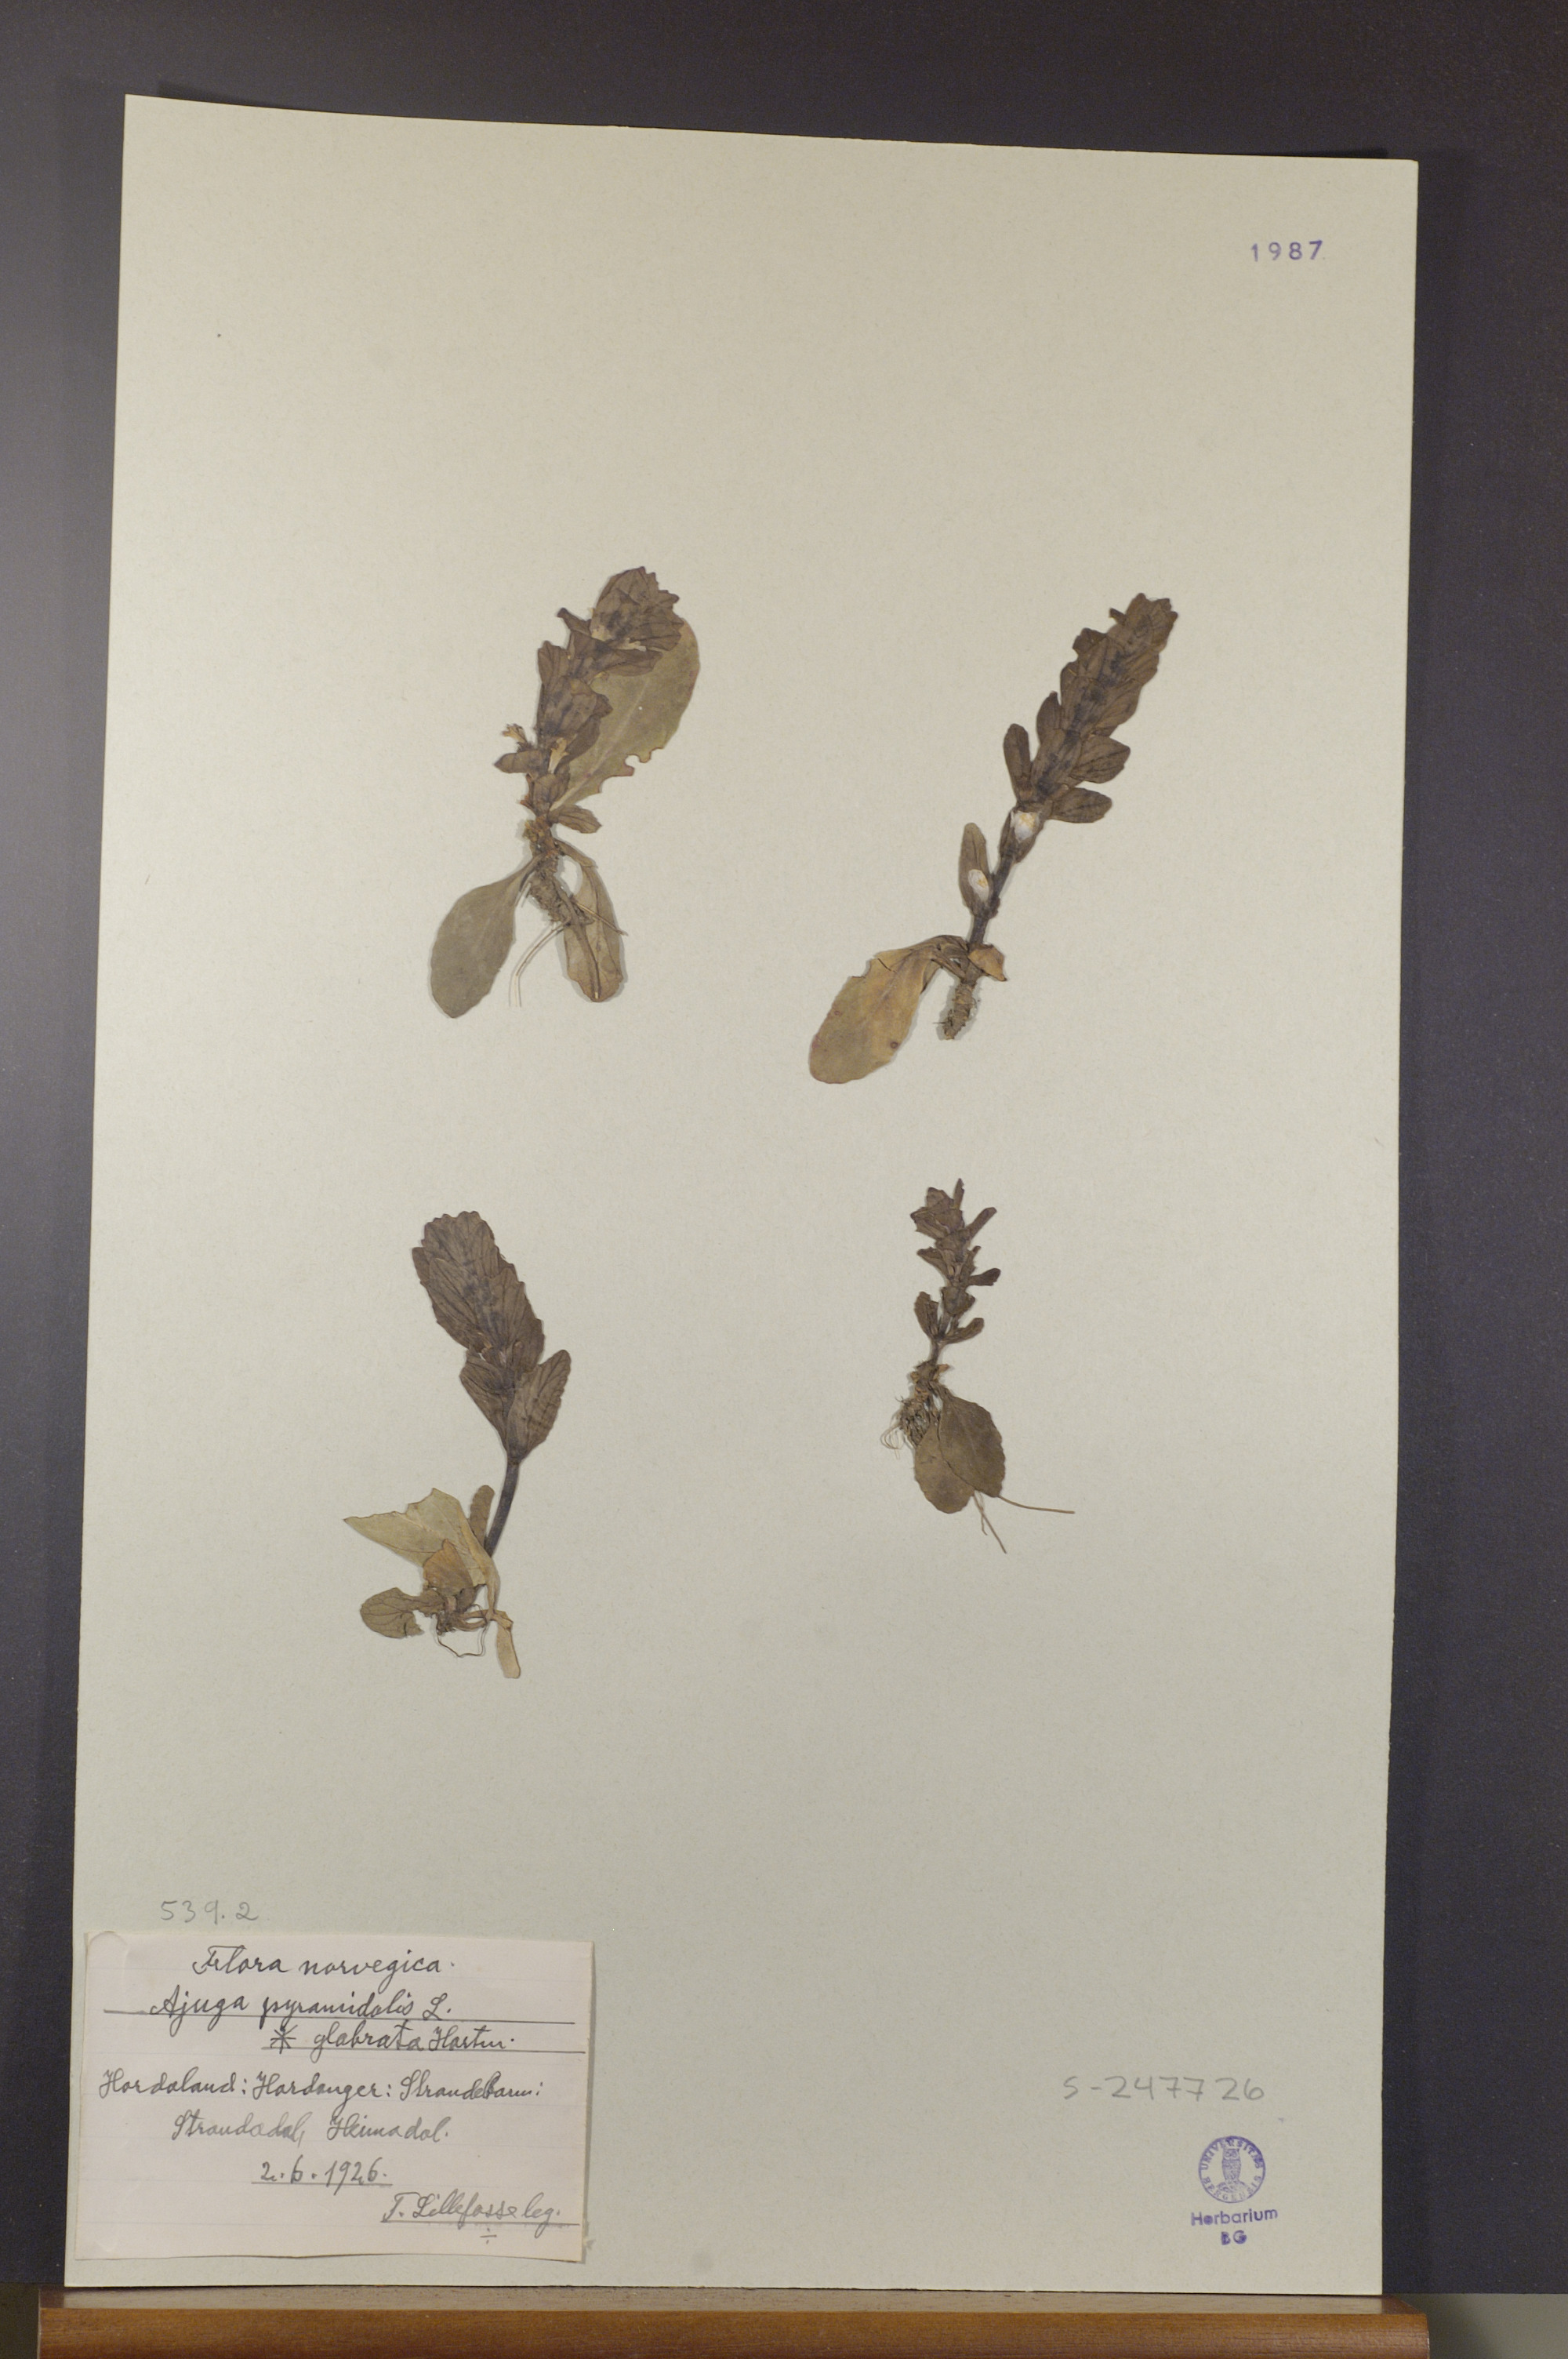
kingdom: Plantae
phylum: Tracheophyta
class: Magnoliopsida
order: Lamiales
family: Lamiaceae
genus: Ajuga
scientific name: Ajuga pyramidalis
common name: Pyramid bugle
